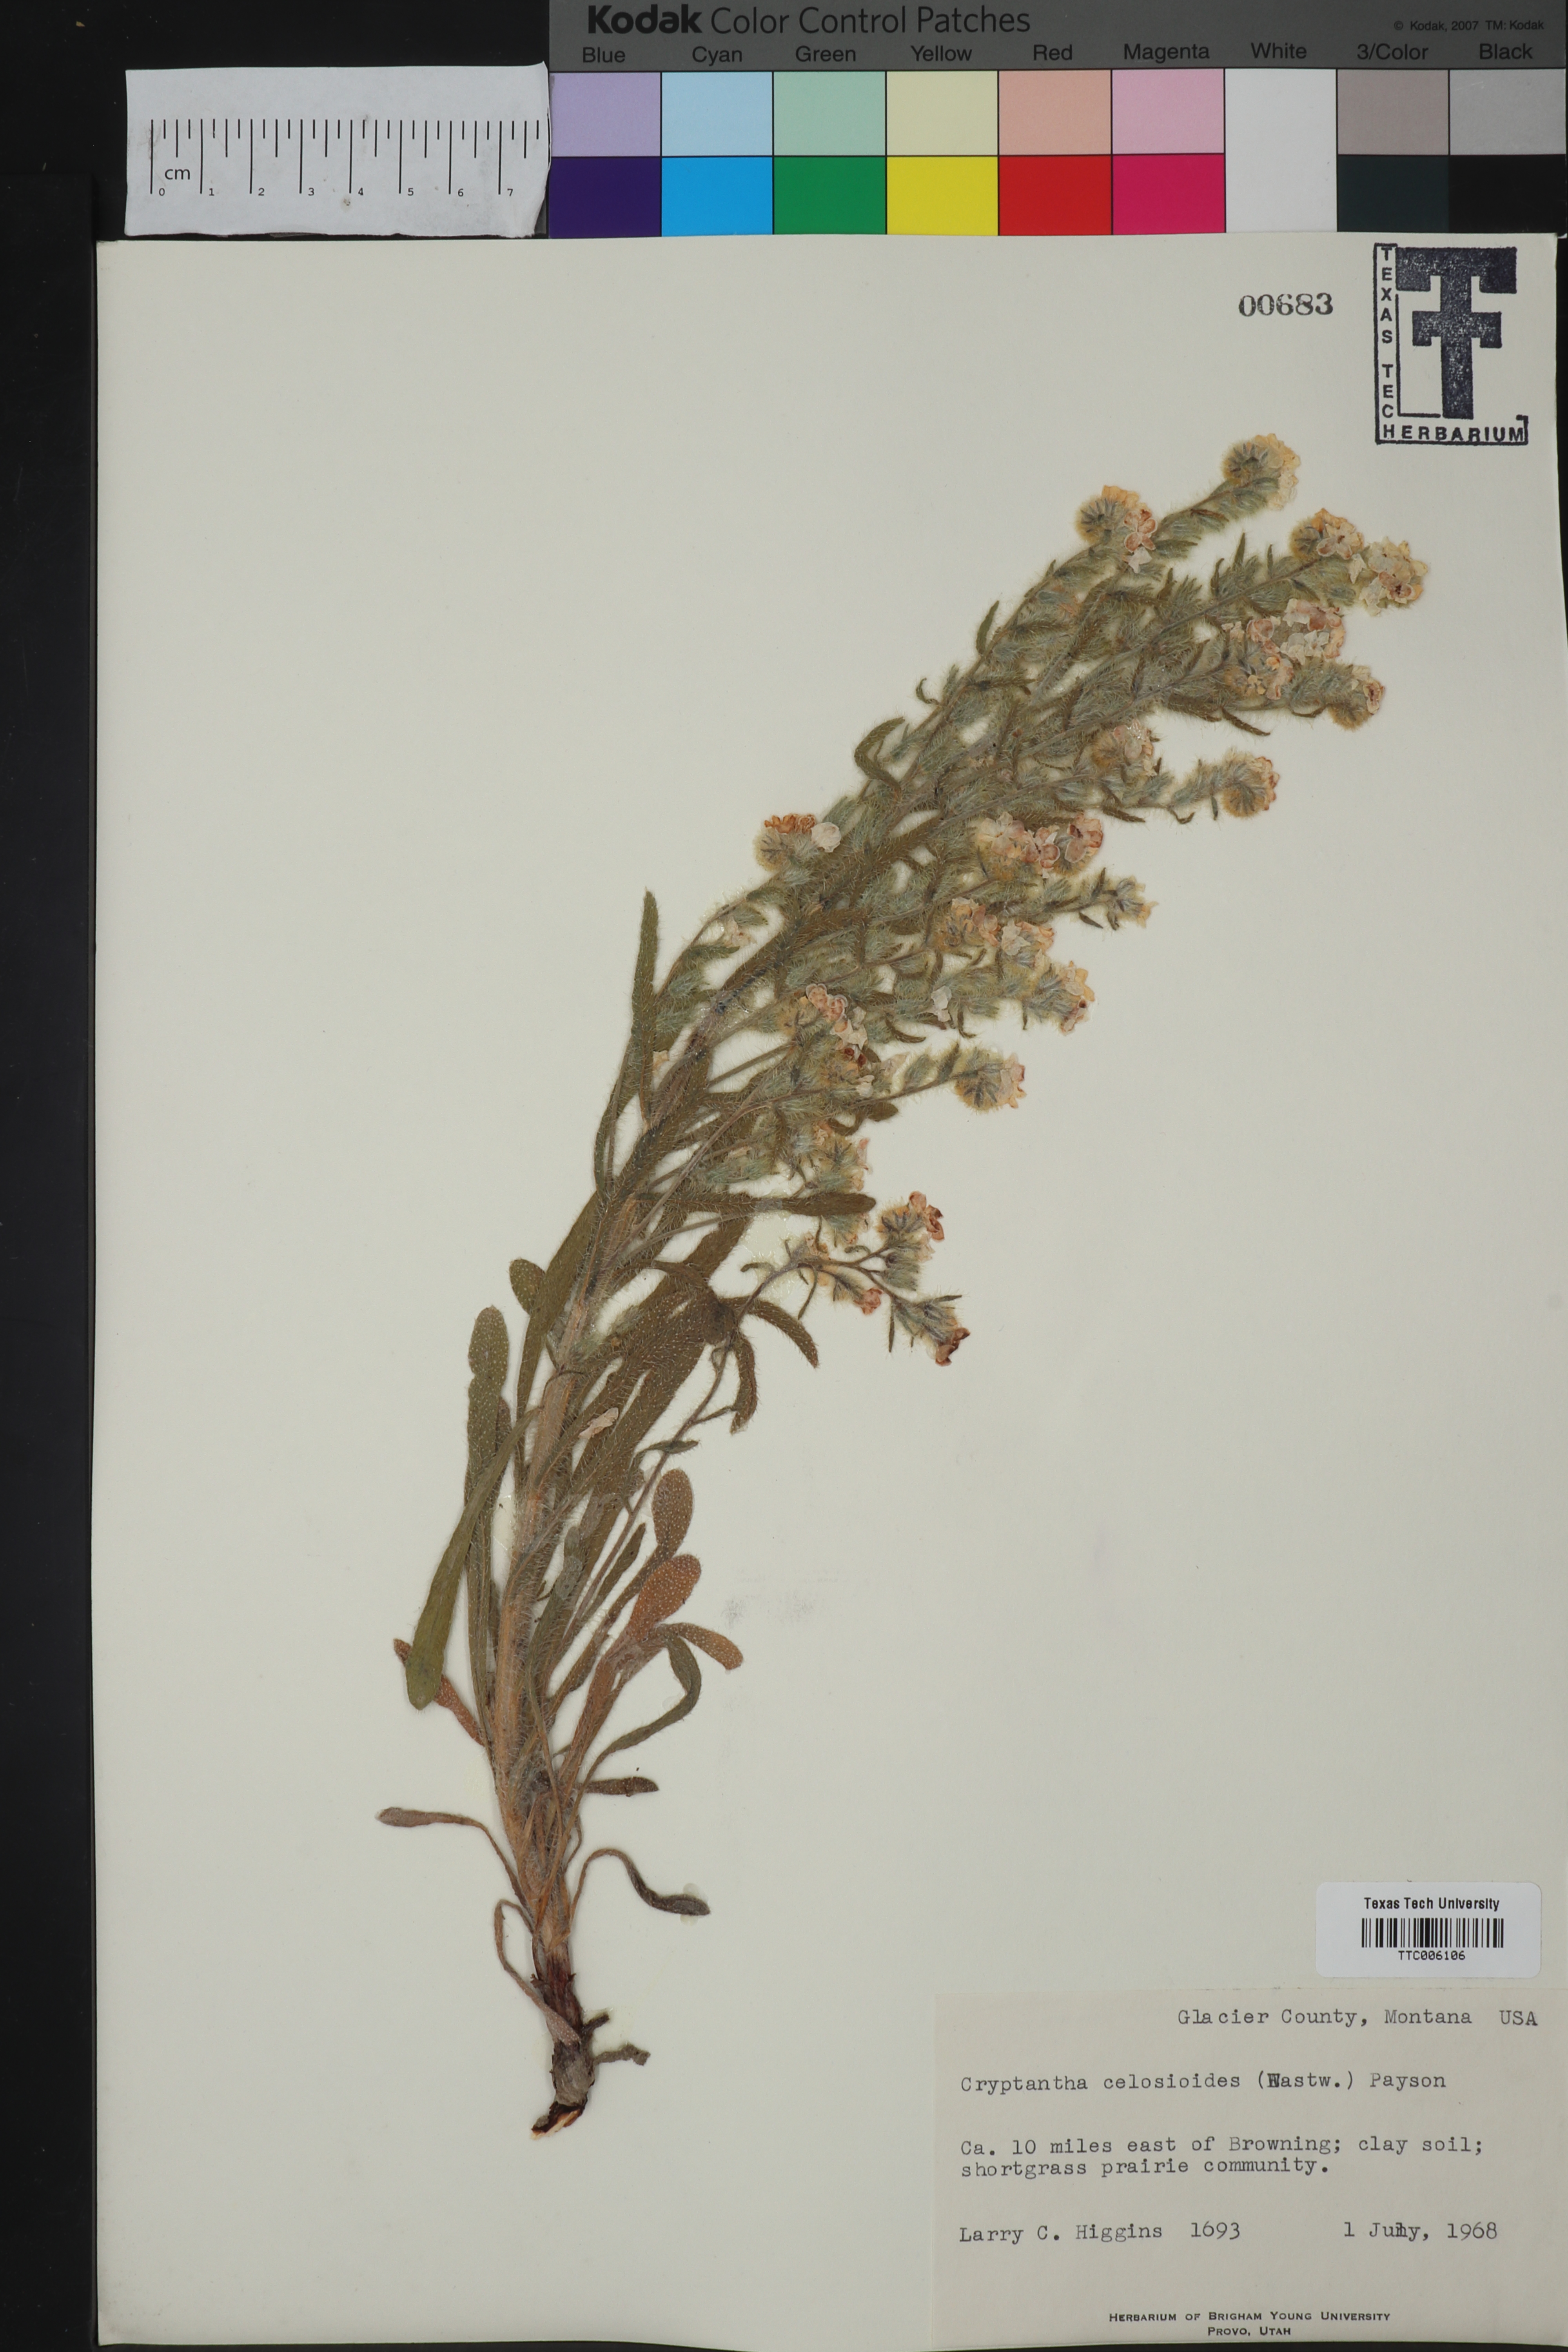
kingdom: Plantae
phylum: Tracheophyta
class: Magnoliopsida
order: Boraginales
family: Boraginaceae
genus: Oreocarya
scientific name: Oreocarya glomerata
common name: Macoun's cryptantha
